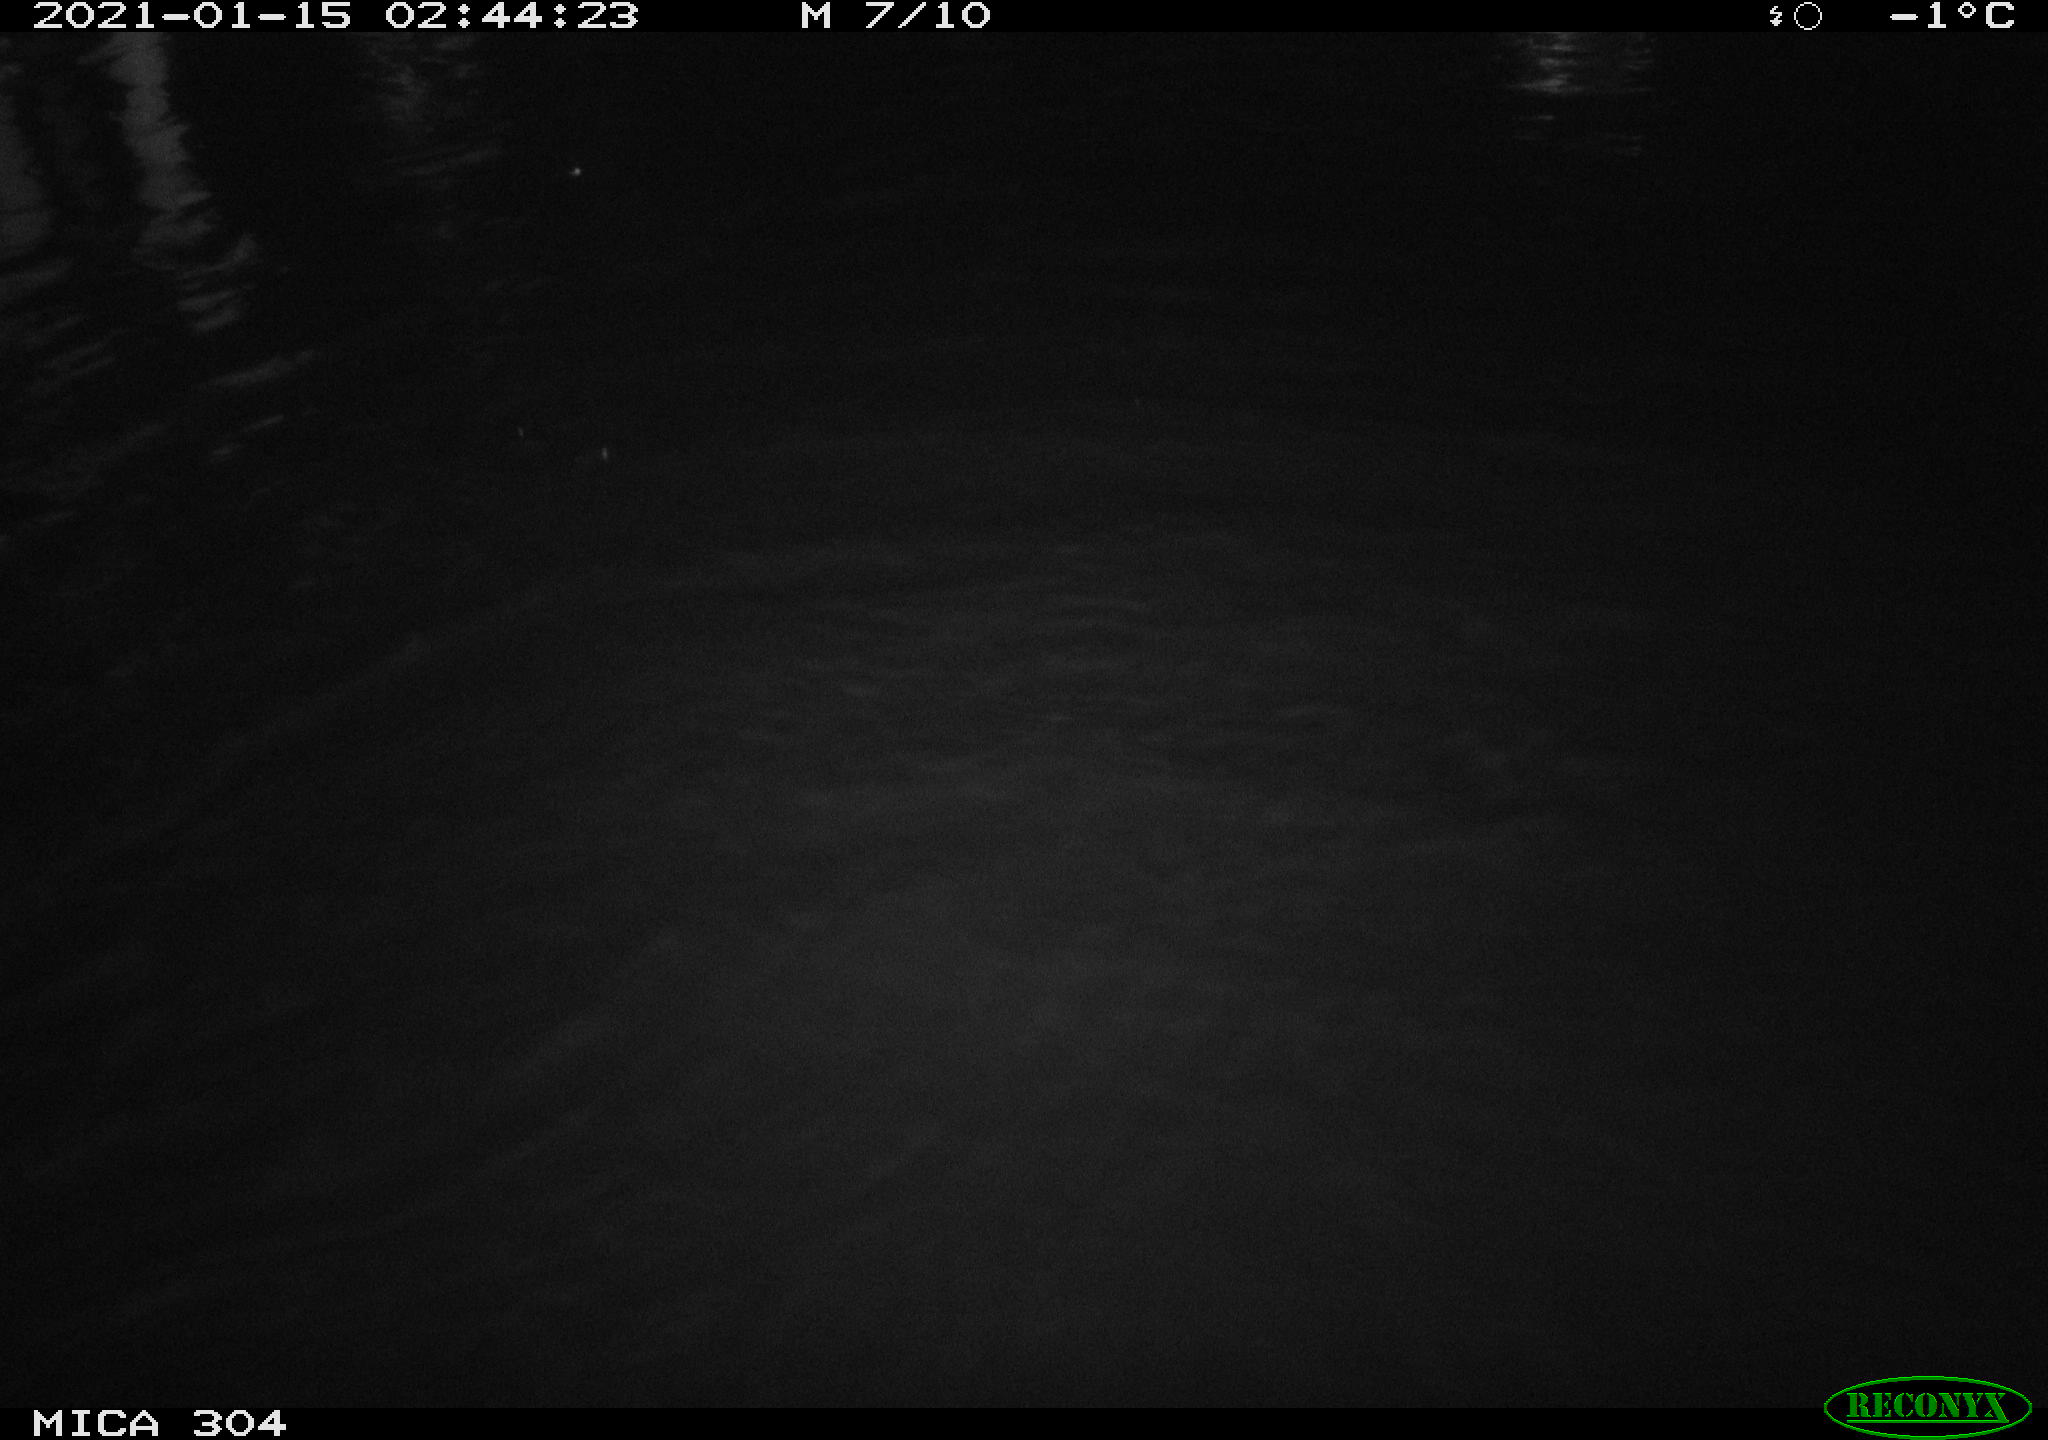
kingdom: Animalia
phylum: Chordata
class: Aves
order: Anseriformes
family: Anatidae
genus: Anas
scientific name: Anas platyrhynchos
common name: Mallard
